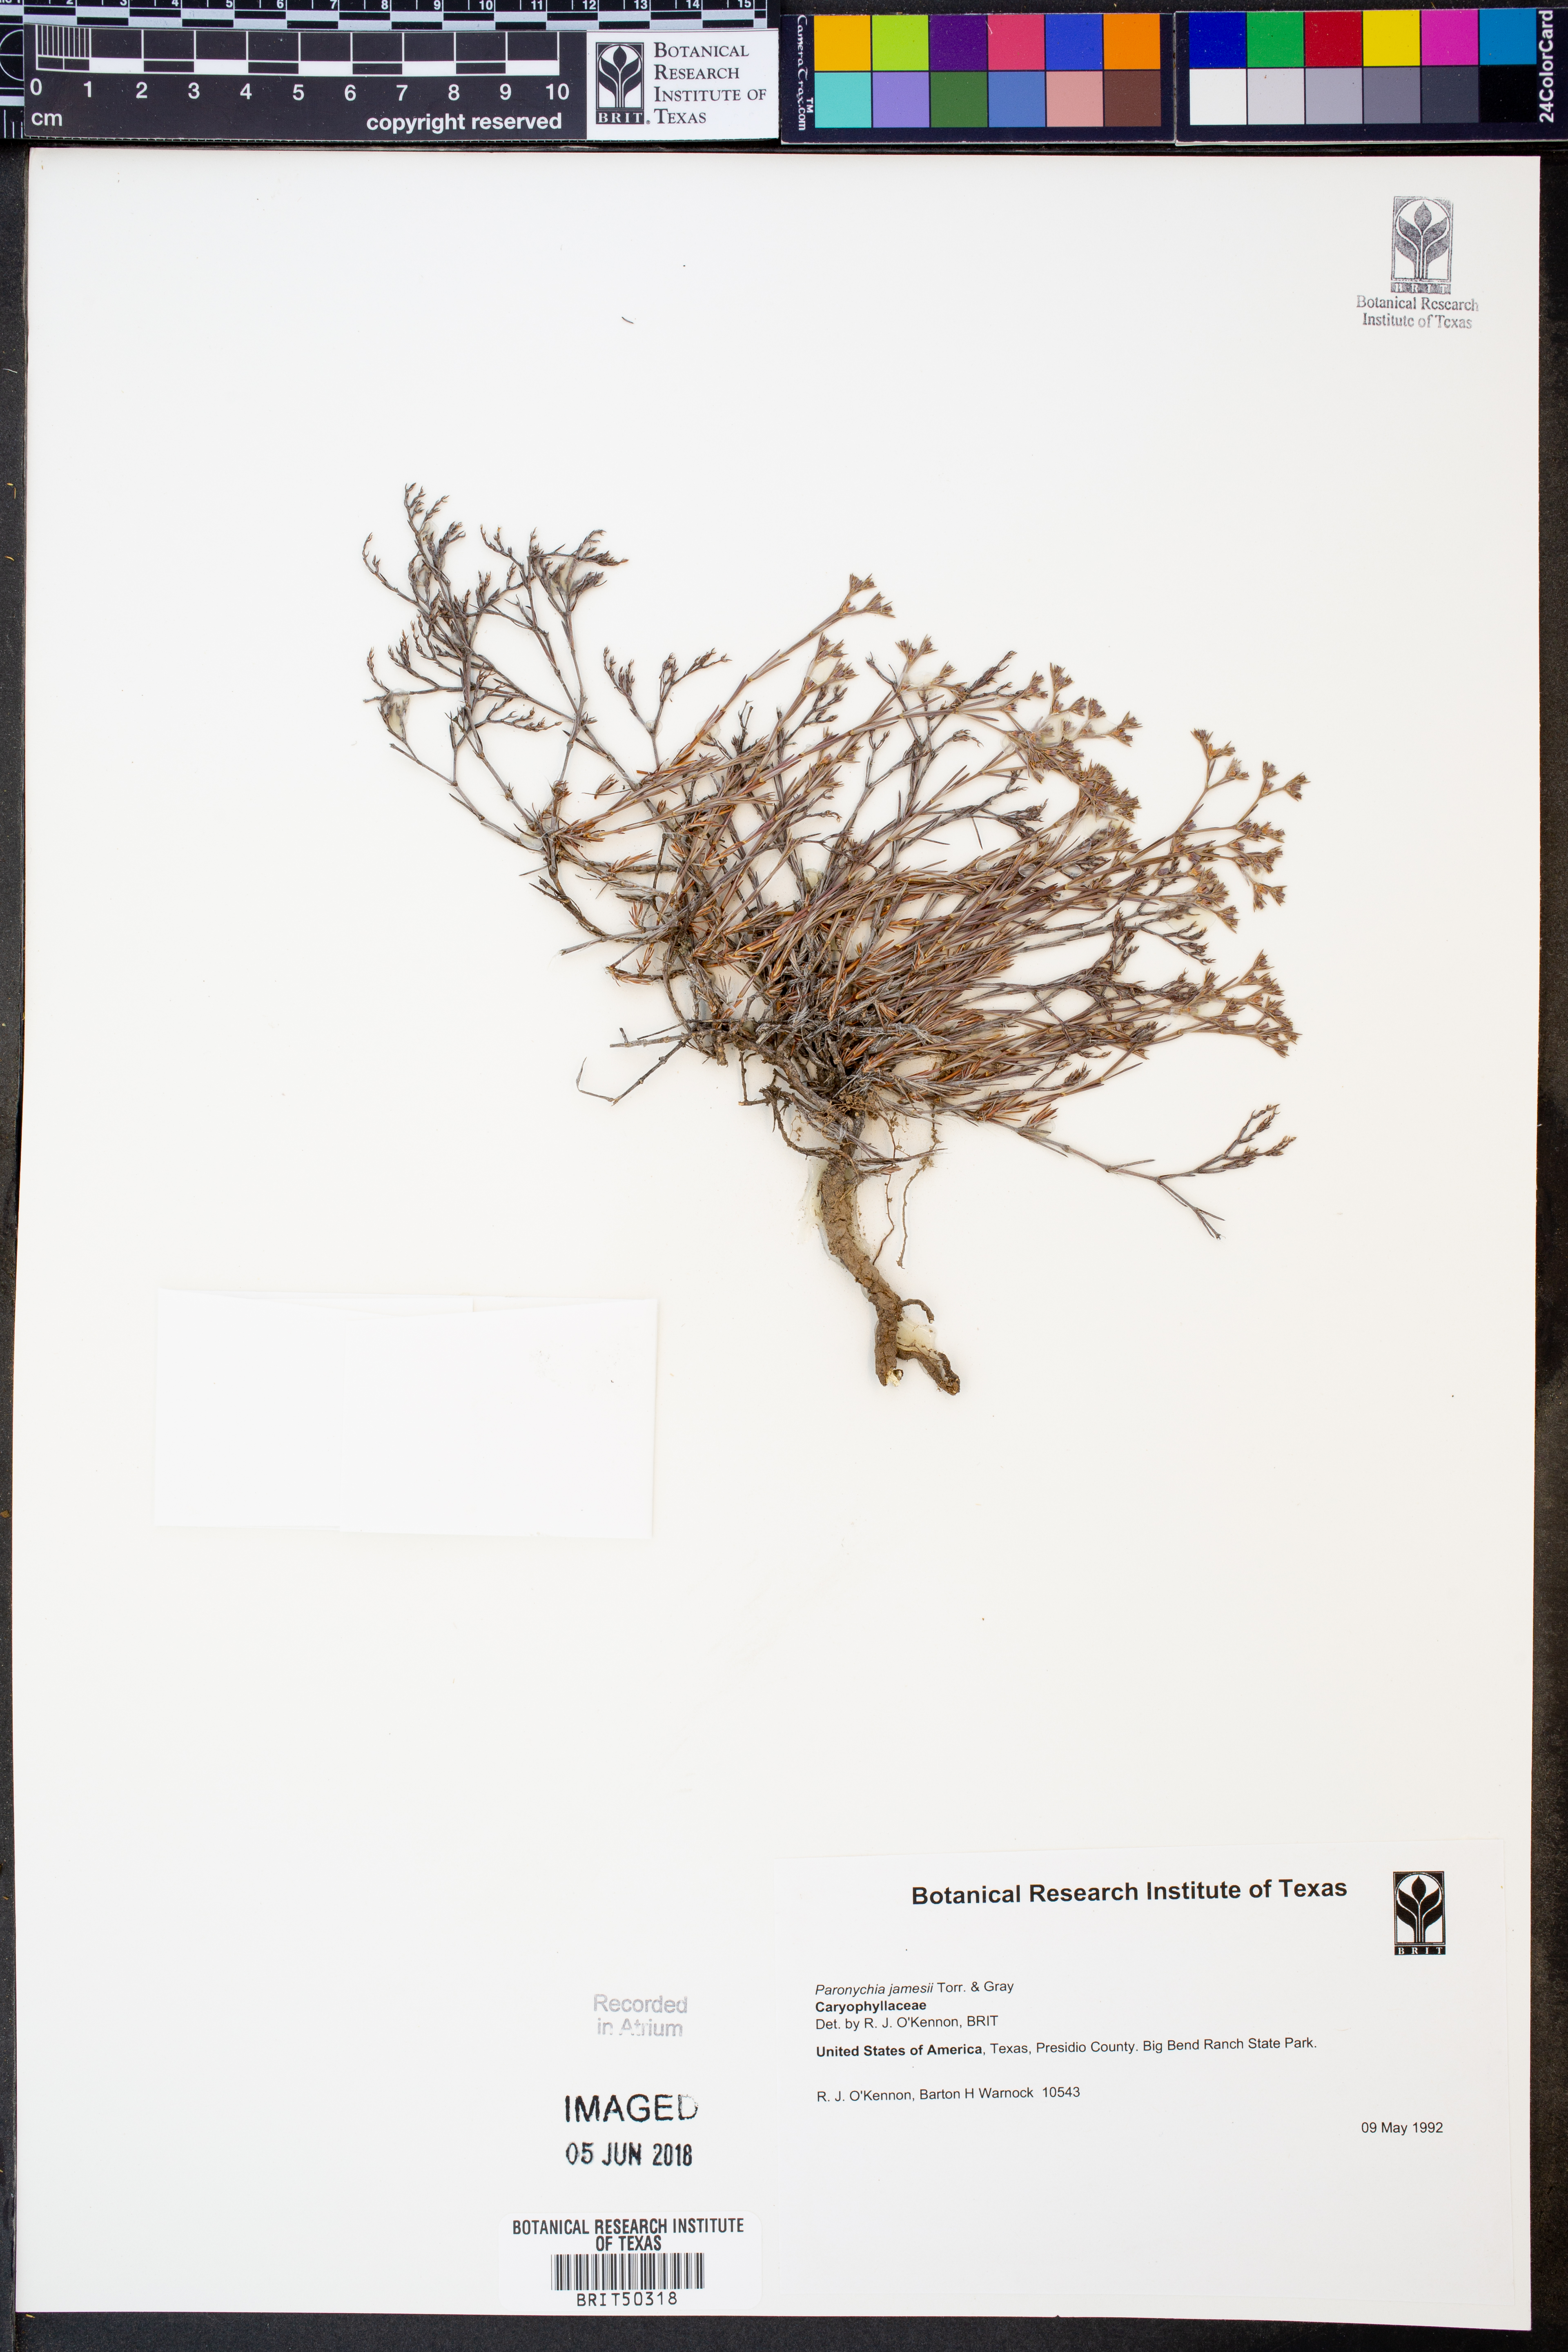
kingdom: Plantae
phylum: Tracheophyta
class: Magnoliopsida
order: Caryophyllales
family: Caryophyllaceae
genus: Paronychia
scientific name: Paronychia jamesii
